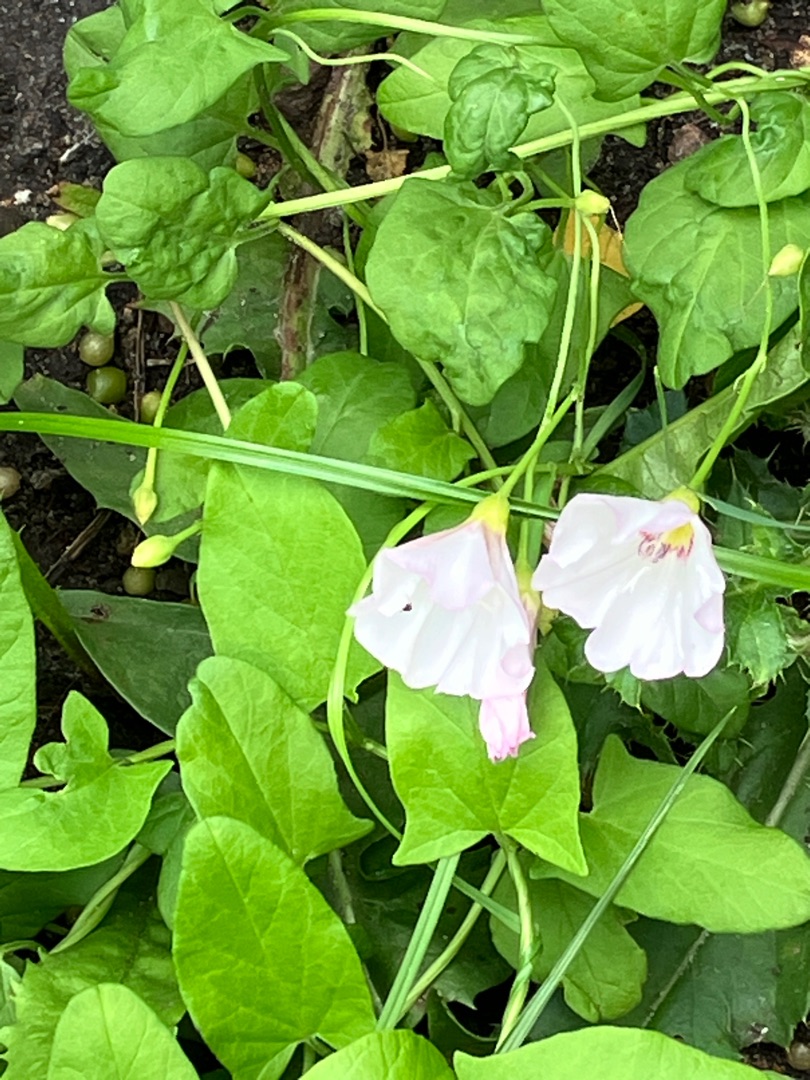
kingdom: Plantae
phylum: Tracheophyta
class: Magnoliopsida
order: Solanales
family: Convolvulaceae
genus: Convolvulus
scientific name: Convolvulus arvensis
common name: Ager-snerle
